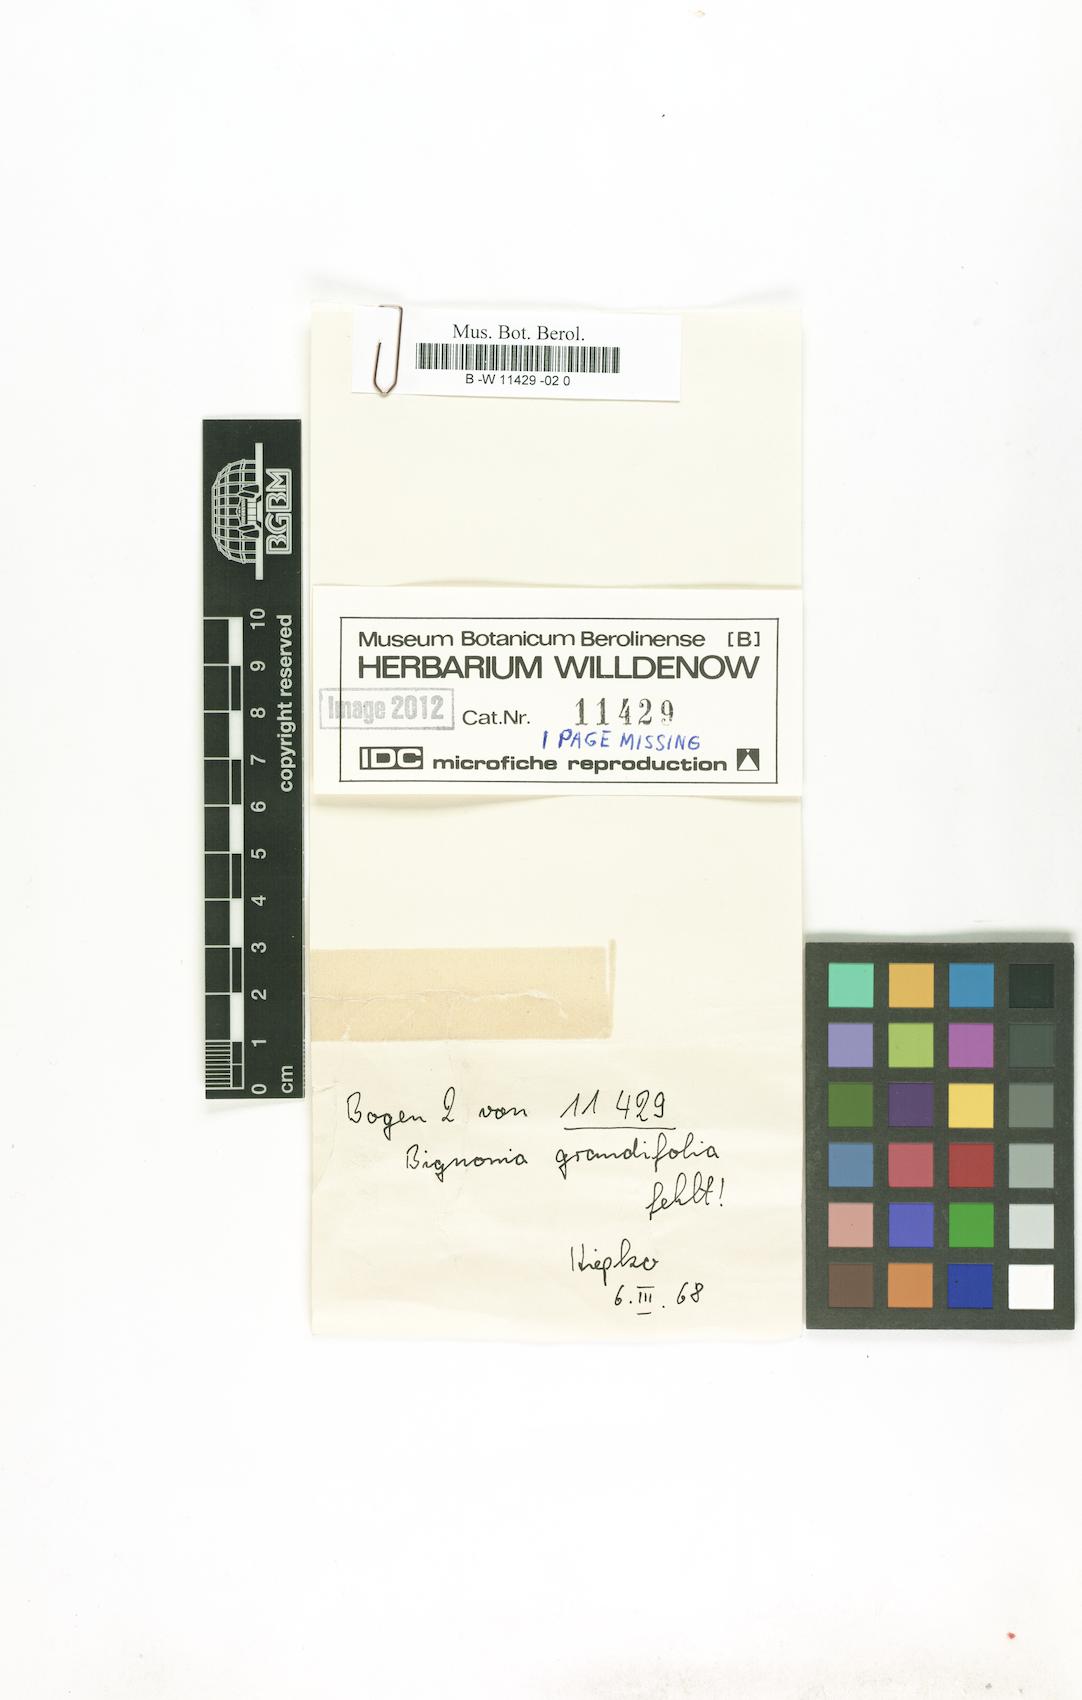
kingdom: Plantae
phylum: Tracheophyta
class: Magnoliopsida
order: Lamiales
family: Bignoniaceae
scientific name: Bignoniaceae
